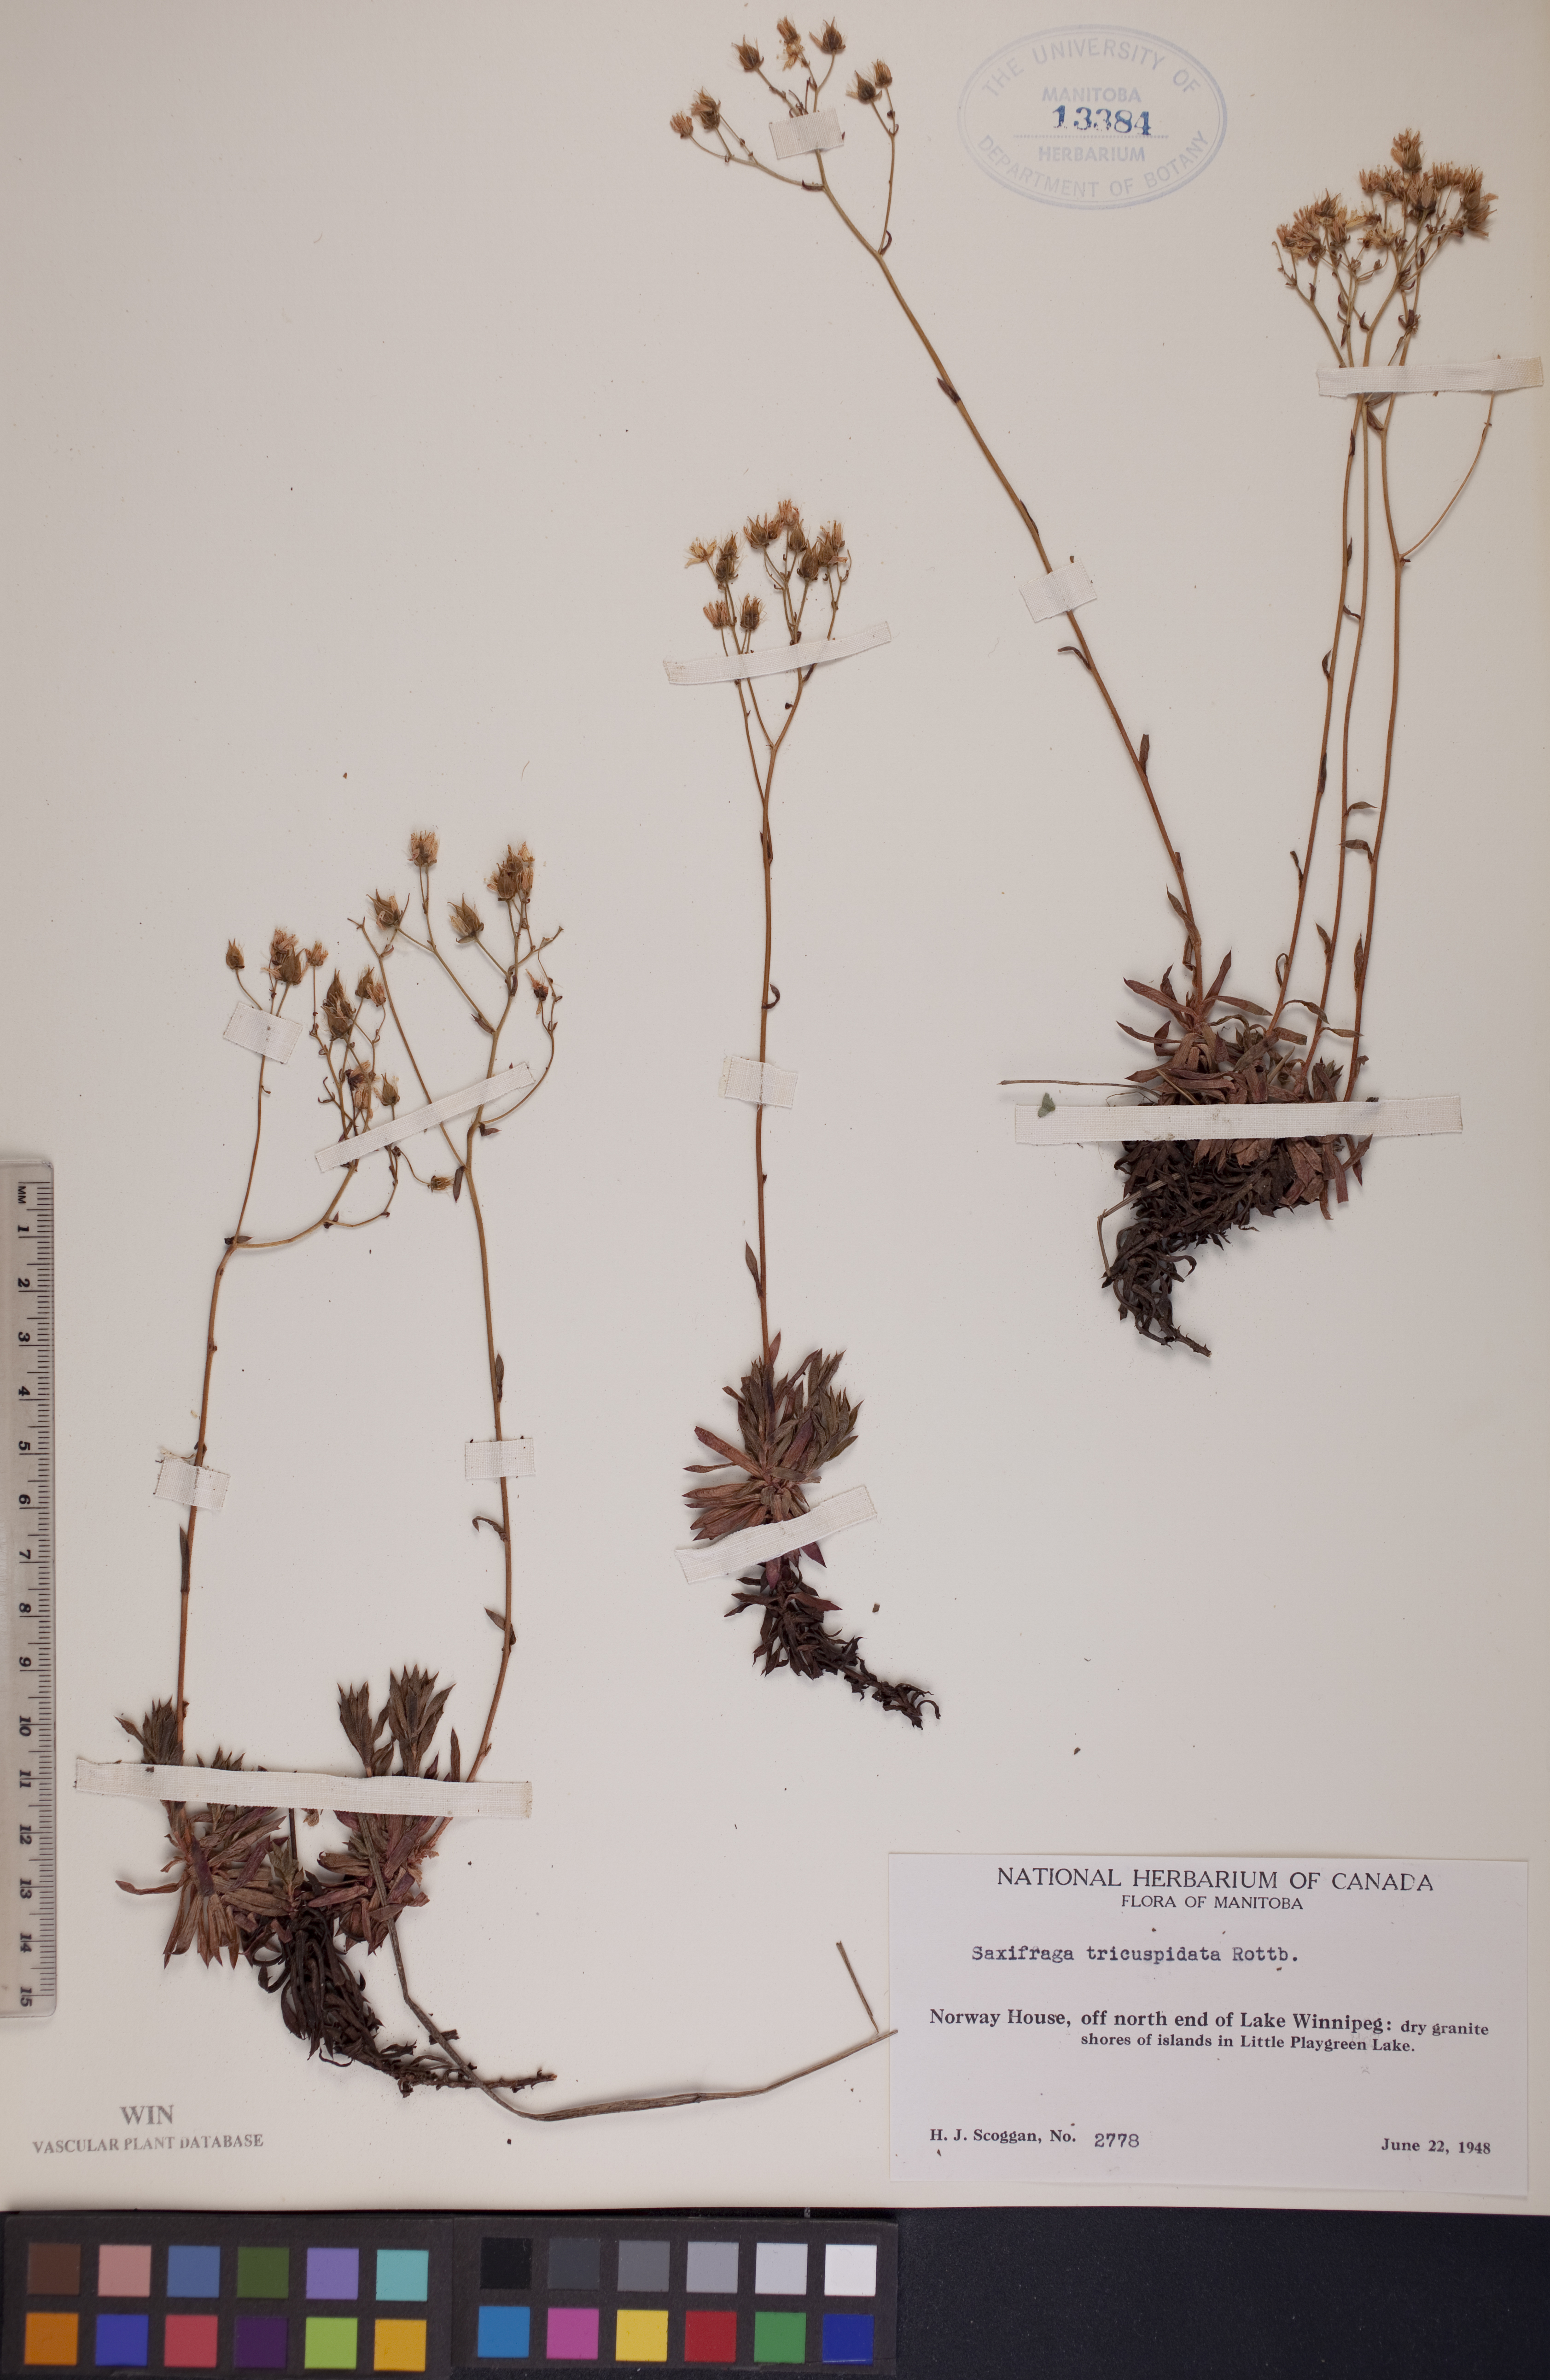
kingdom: Plantae
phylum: Tracheophyta
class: Magnoliopsida
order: Saxifragales
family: Saxifragaceae
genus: Saxifraga
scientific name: Saxifraga tricuspidata
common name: Prickly saxifrage
